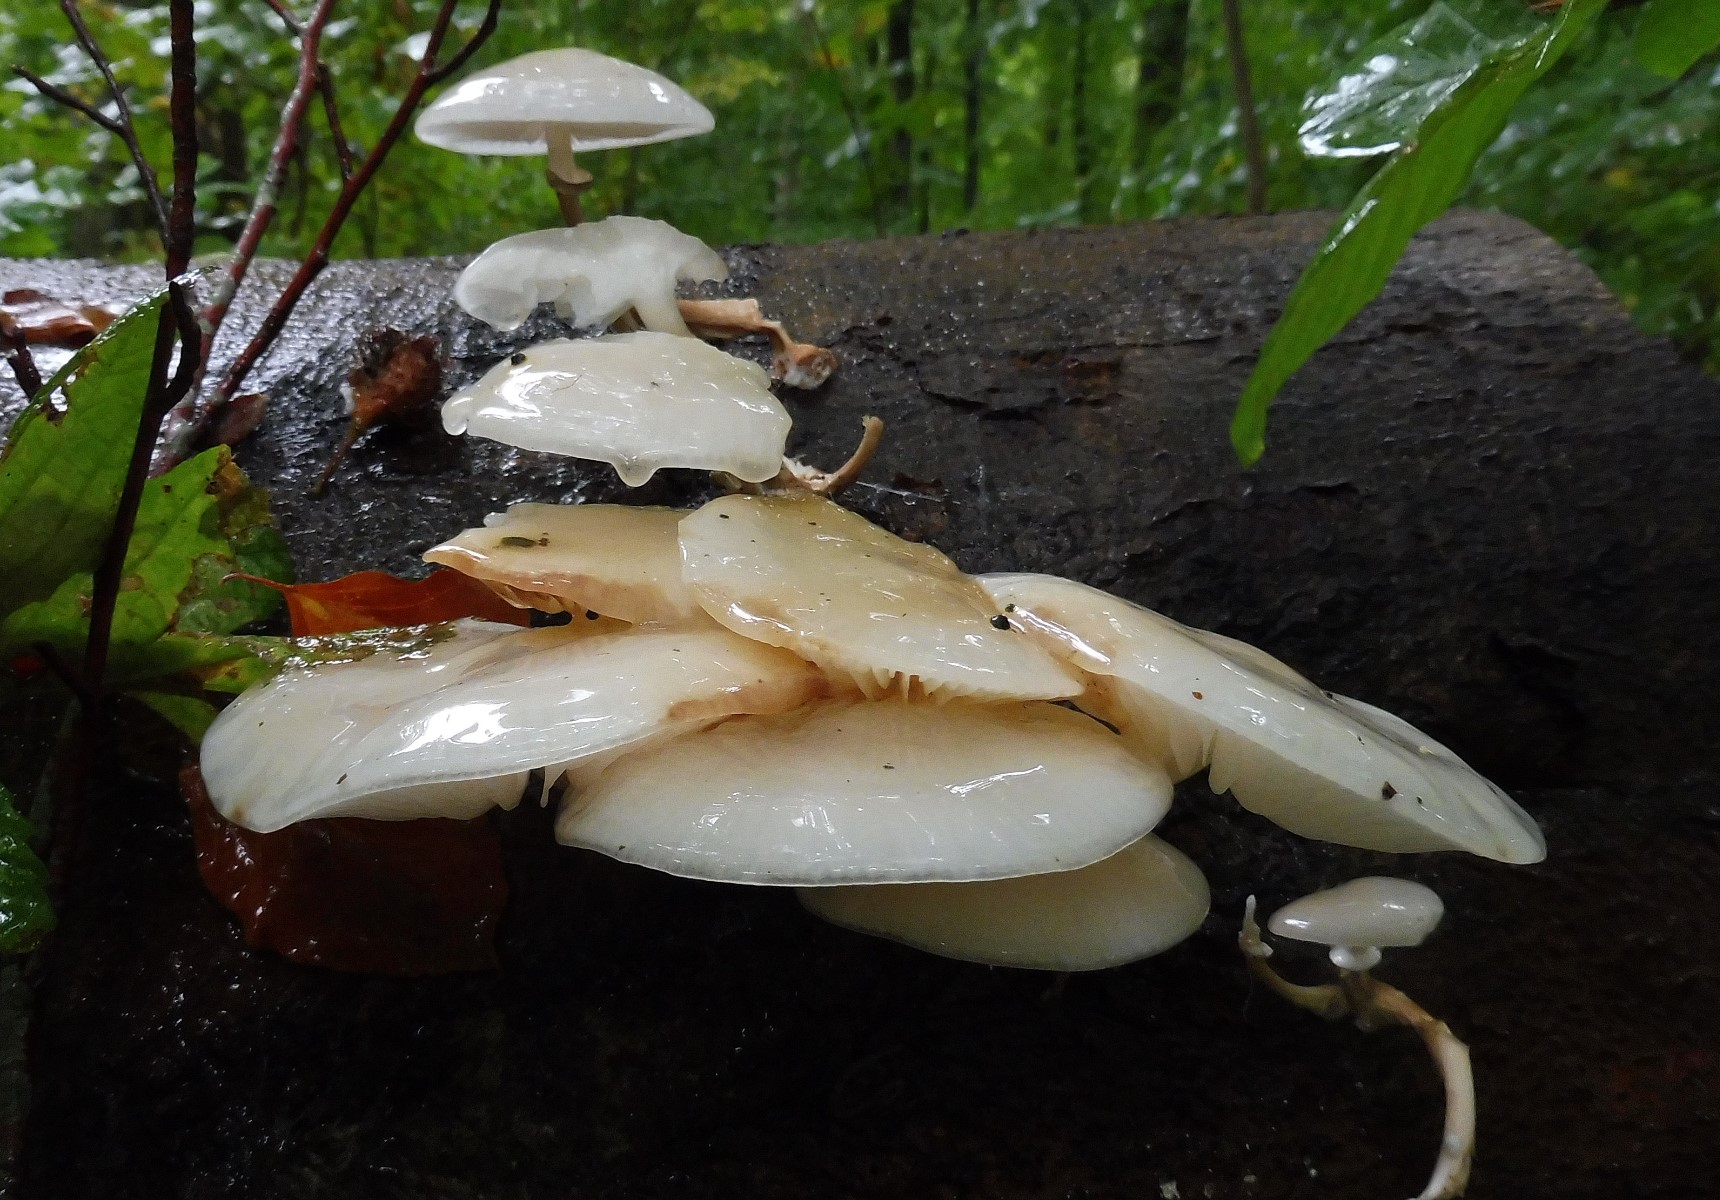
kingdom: Fungi
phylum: Basidiomycota
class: Agaricomycetes
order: Agaricales
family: Physalacriaceae
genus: Mucidula
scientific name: Mucidula mucida
